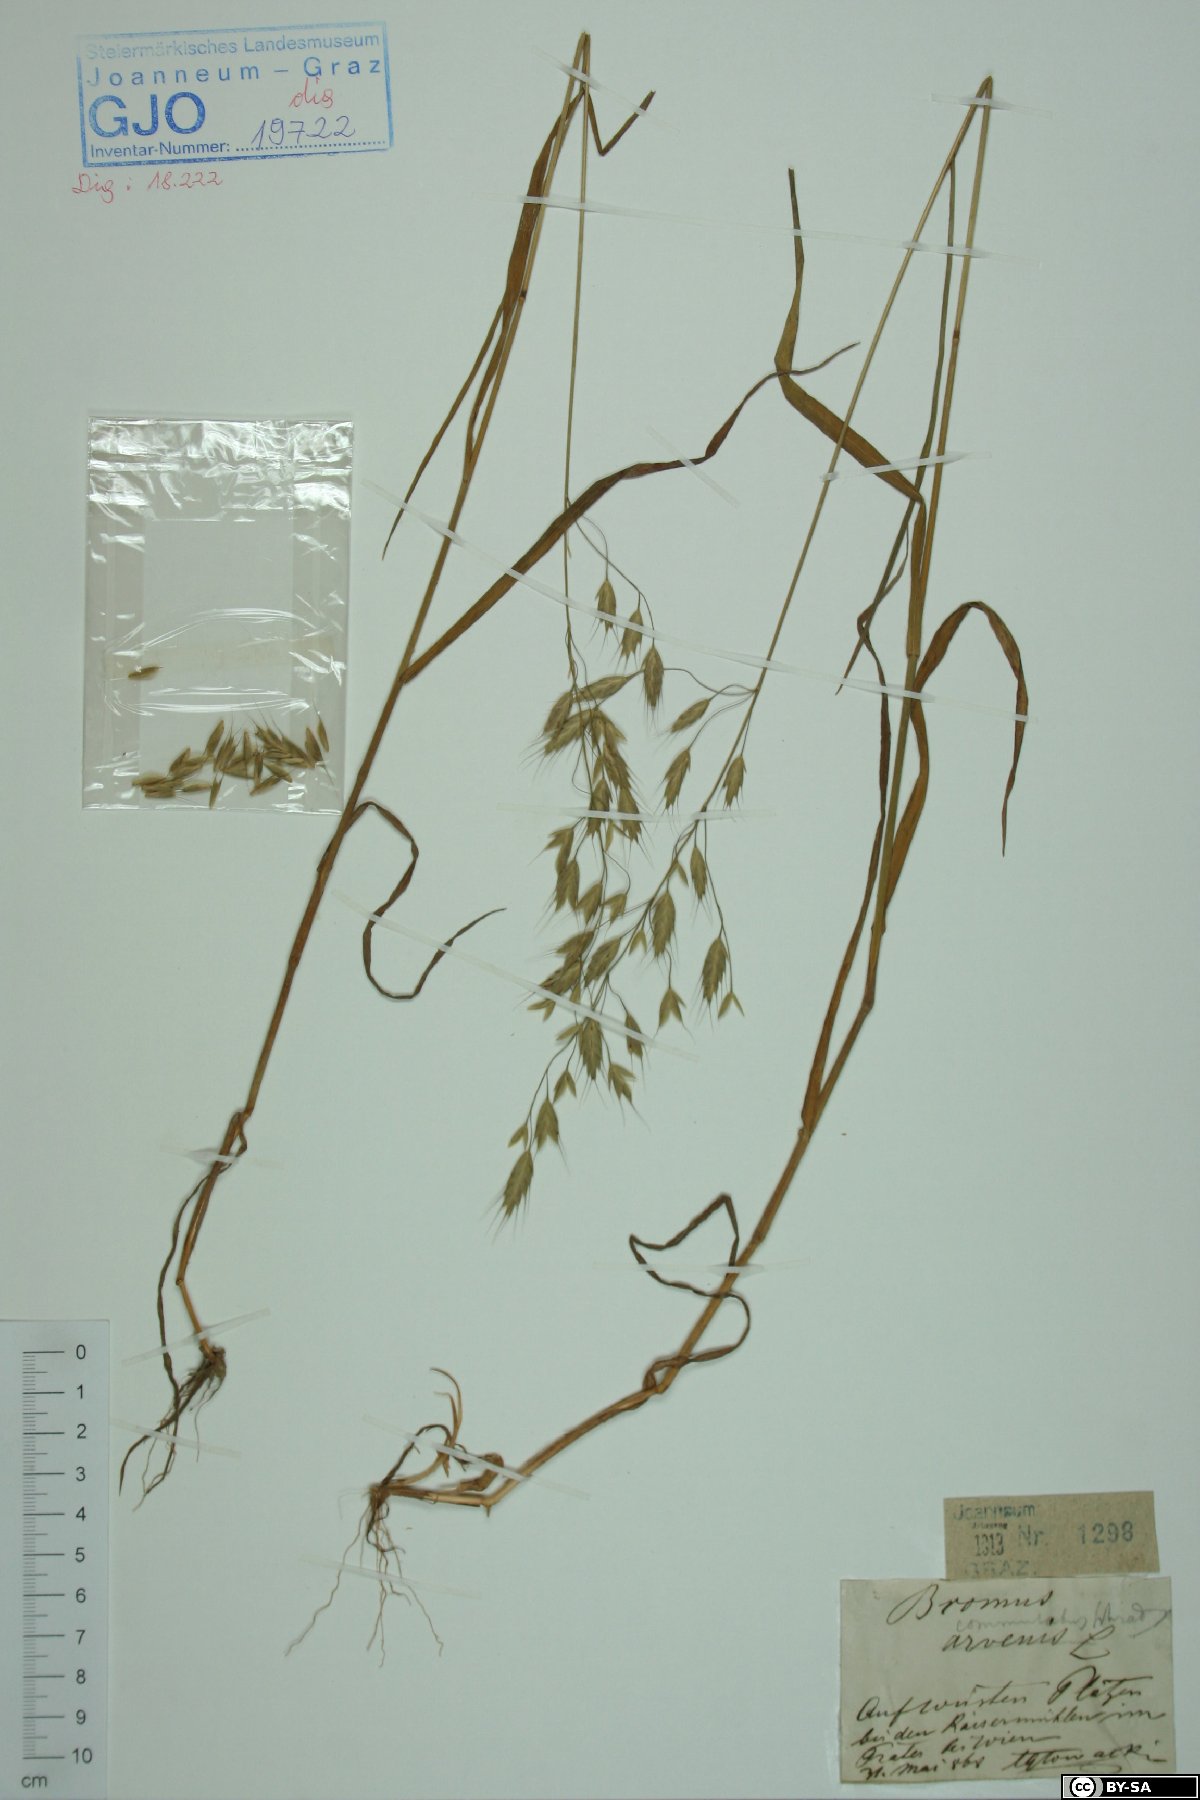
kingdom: Plantae
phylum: Tracheophyta
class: Liliopsida
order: Poales
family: Poaceae
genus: Bromus
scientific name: Bromus commutatus
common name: Meadow brome
